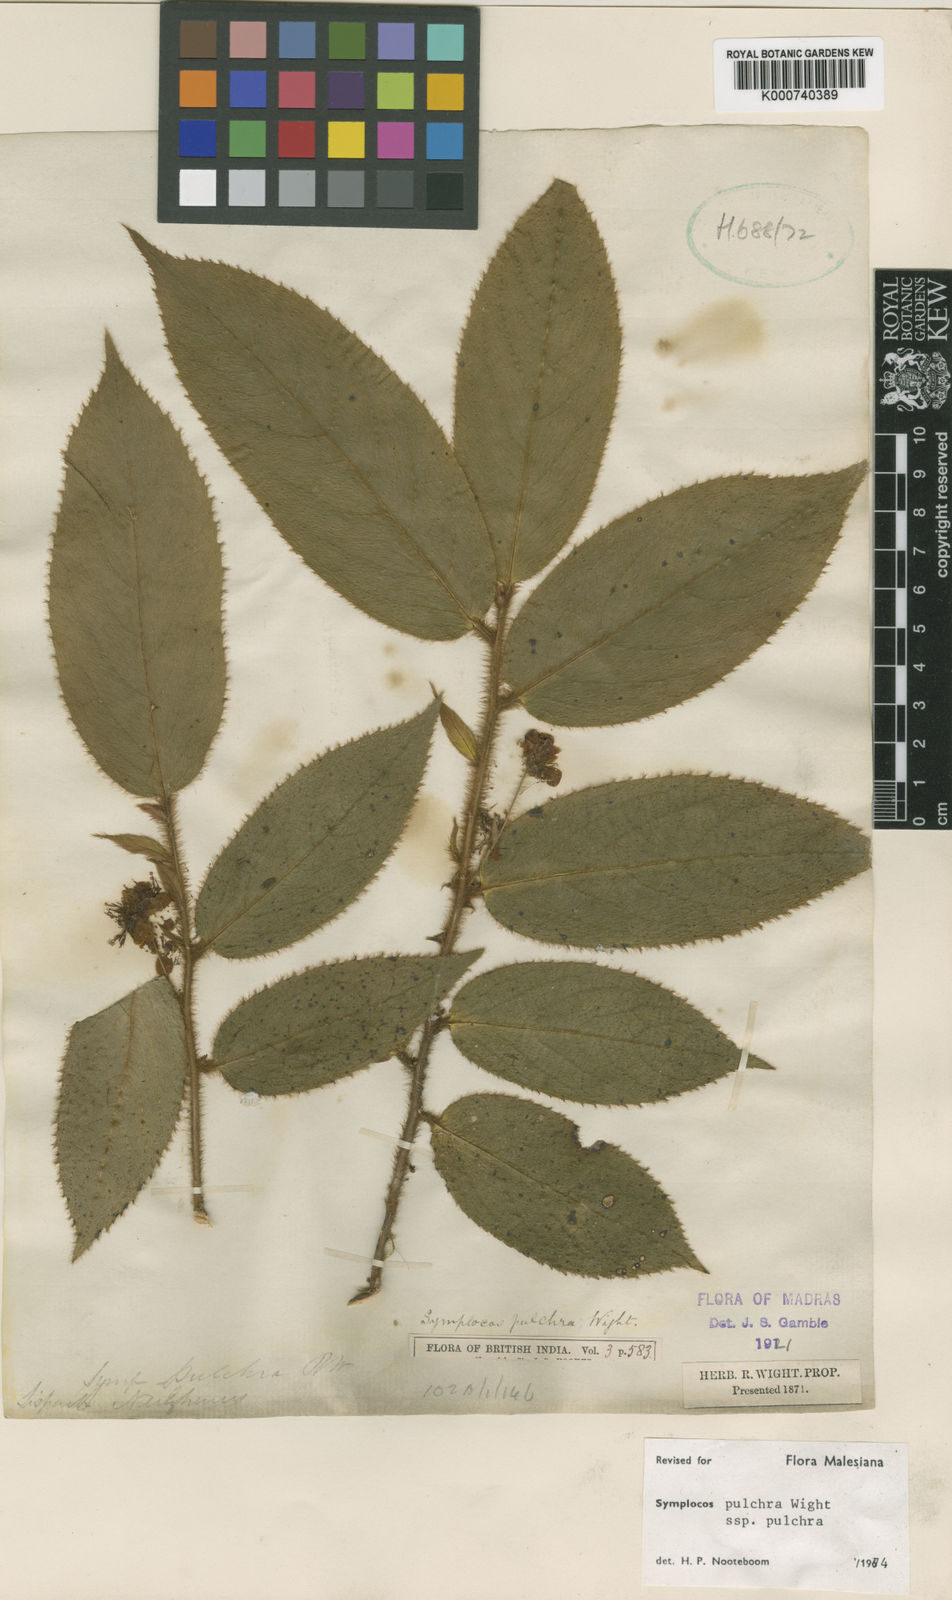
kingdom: Plantae
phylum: Tracheophyta
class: Magnoliopsida
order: Ericales
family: Symplocaceae
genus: Symplocos
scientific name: Symplocos pulchra
